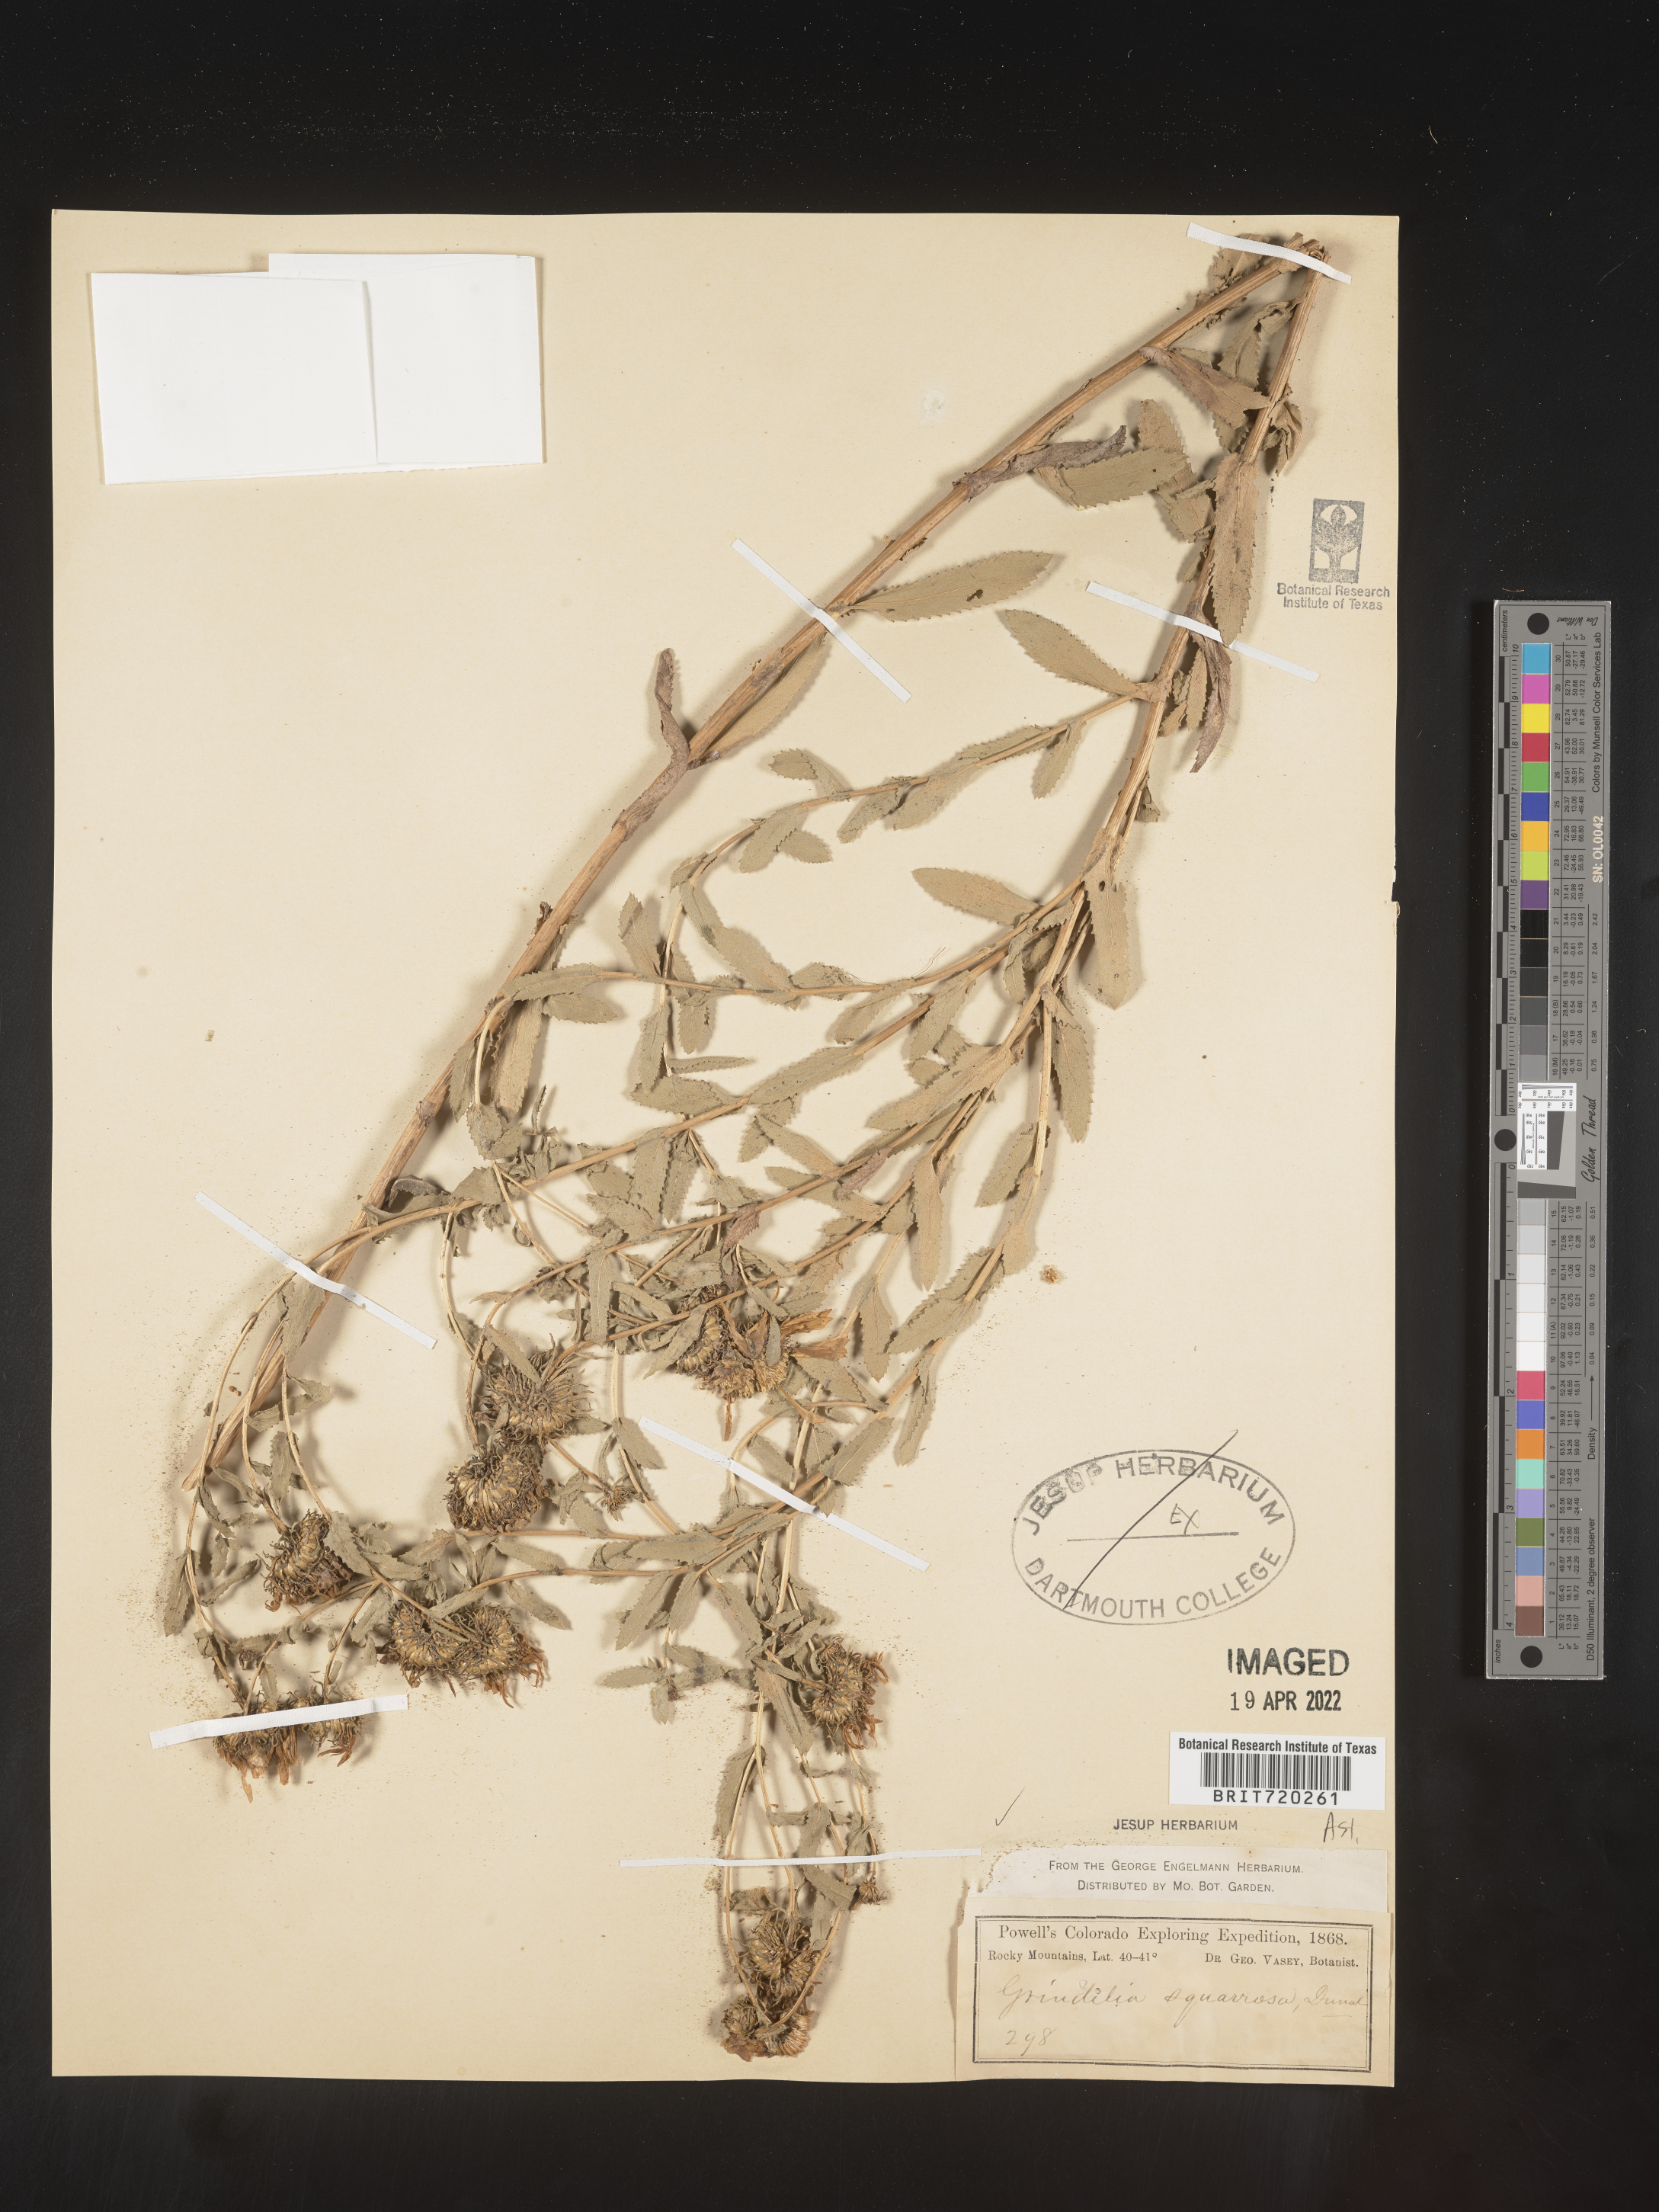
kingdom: Plantae
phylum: Tracheophyta
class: Magnoliopsida
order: Asterales
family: Asteraceae
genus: Grindelia
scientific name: Grindelia squarrosa
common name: Curly-cup gumweed
